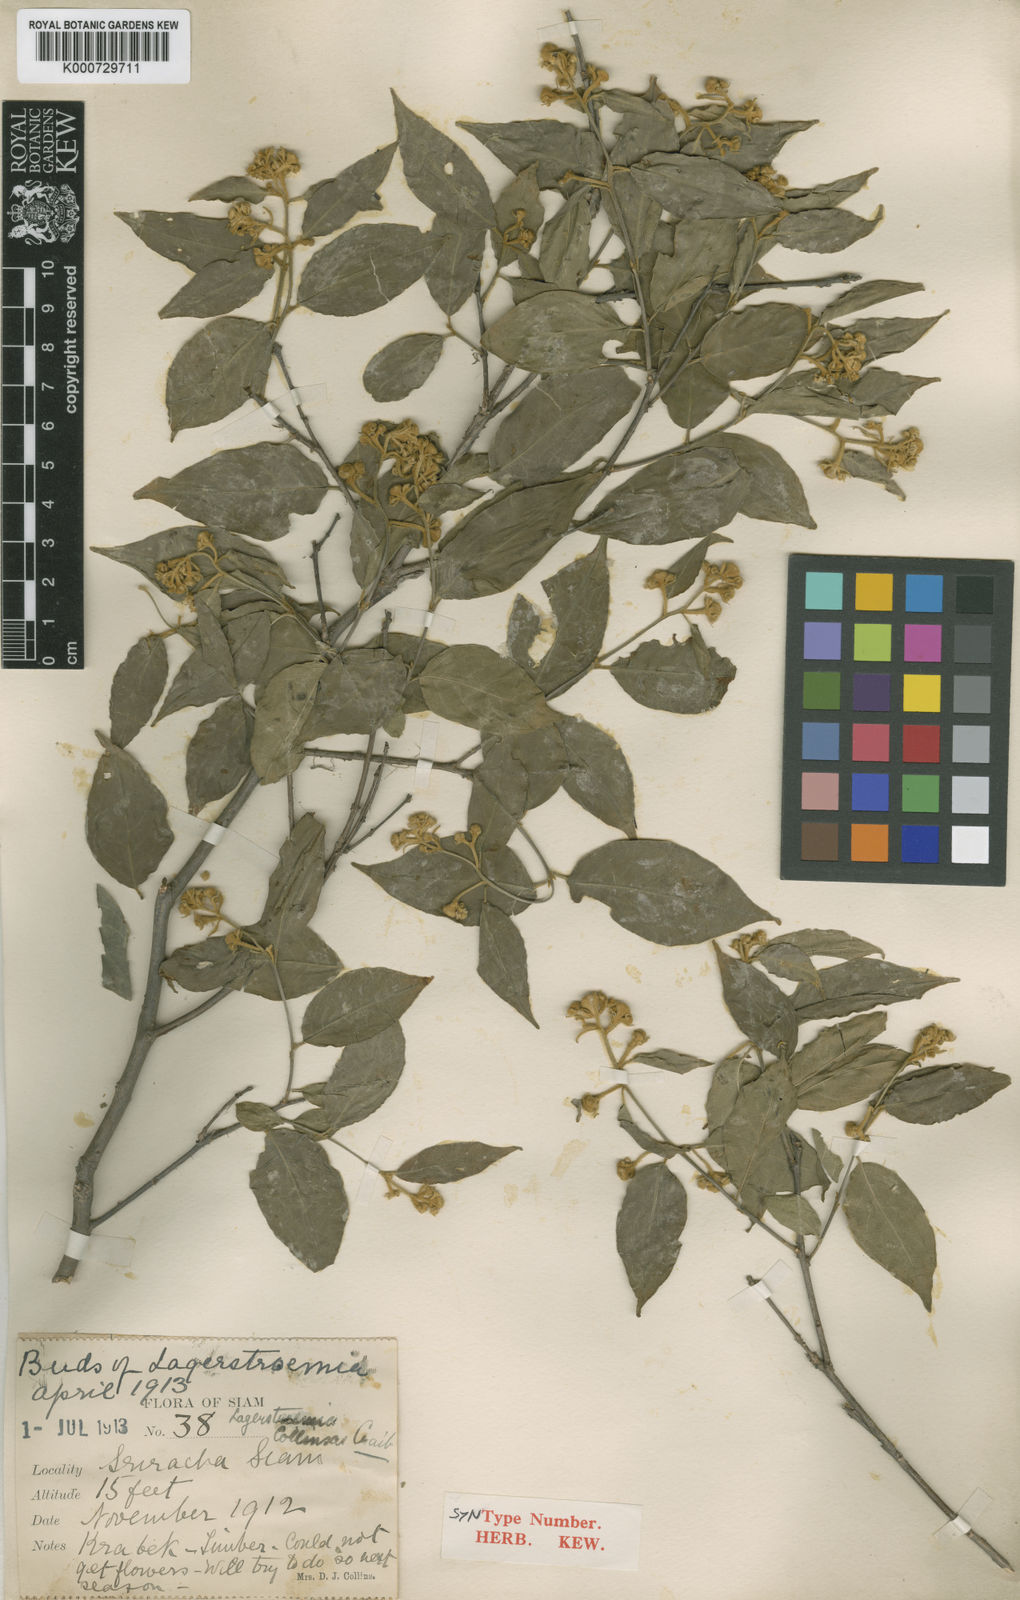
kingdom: Plantae
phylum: Tracheophyta
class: Magnoliopsida
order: Myrtales
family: Lythraceae
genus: Lagerstroemia
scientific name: Lagerstroemia cochinchinensis
